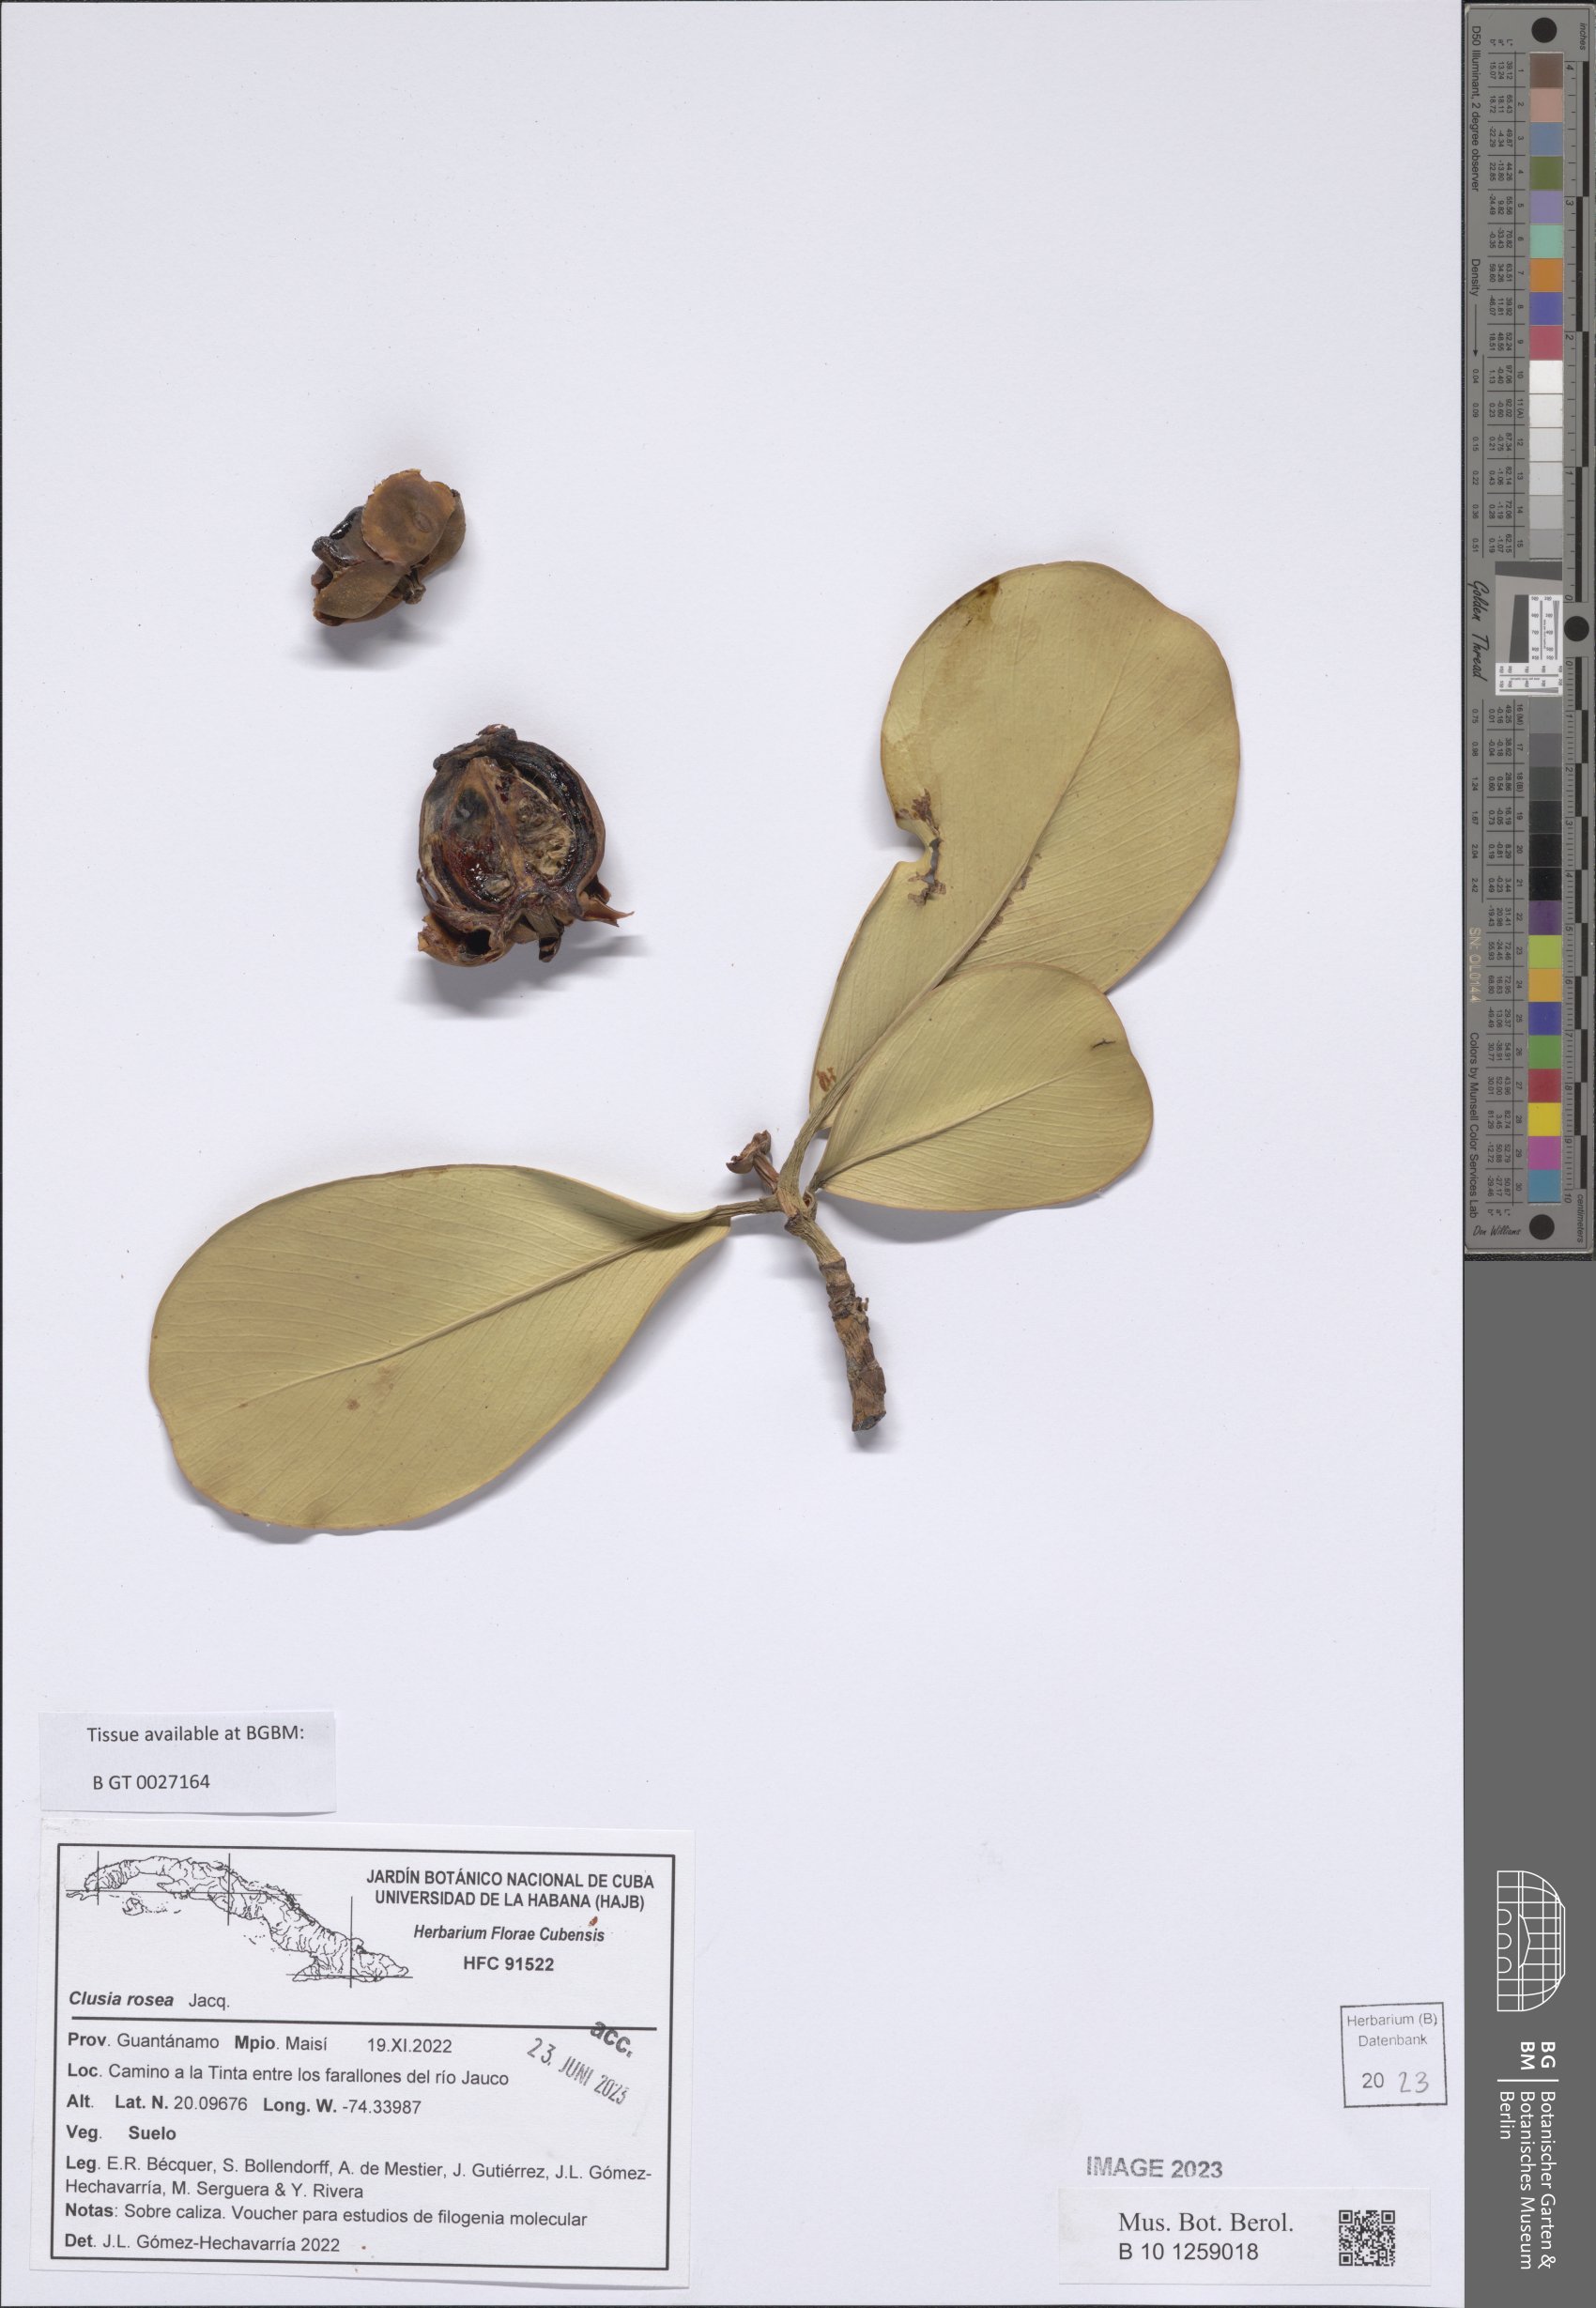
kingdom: Plantae
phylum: Tracheophyta
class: Magnoliopsida
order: Malpighiales
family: Clusiaceae
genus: Clusia
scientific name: Clusia rosea
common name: Scotch attorney
